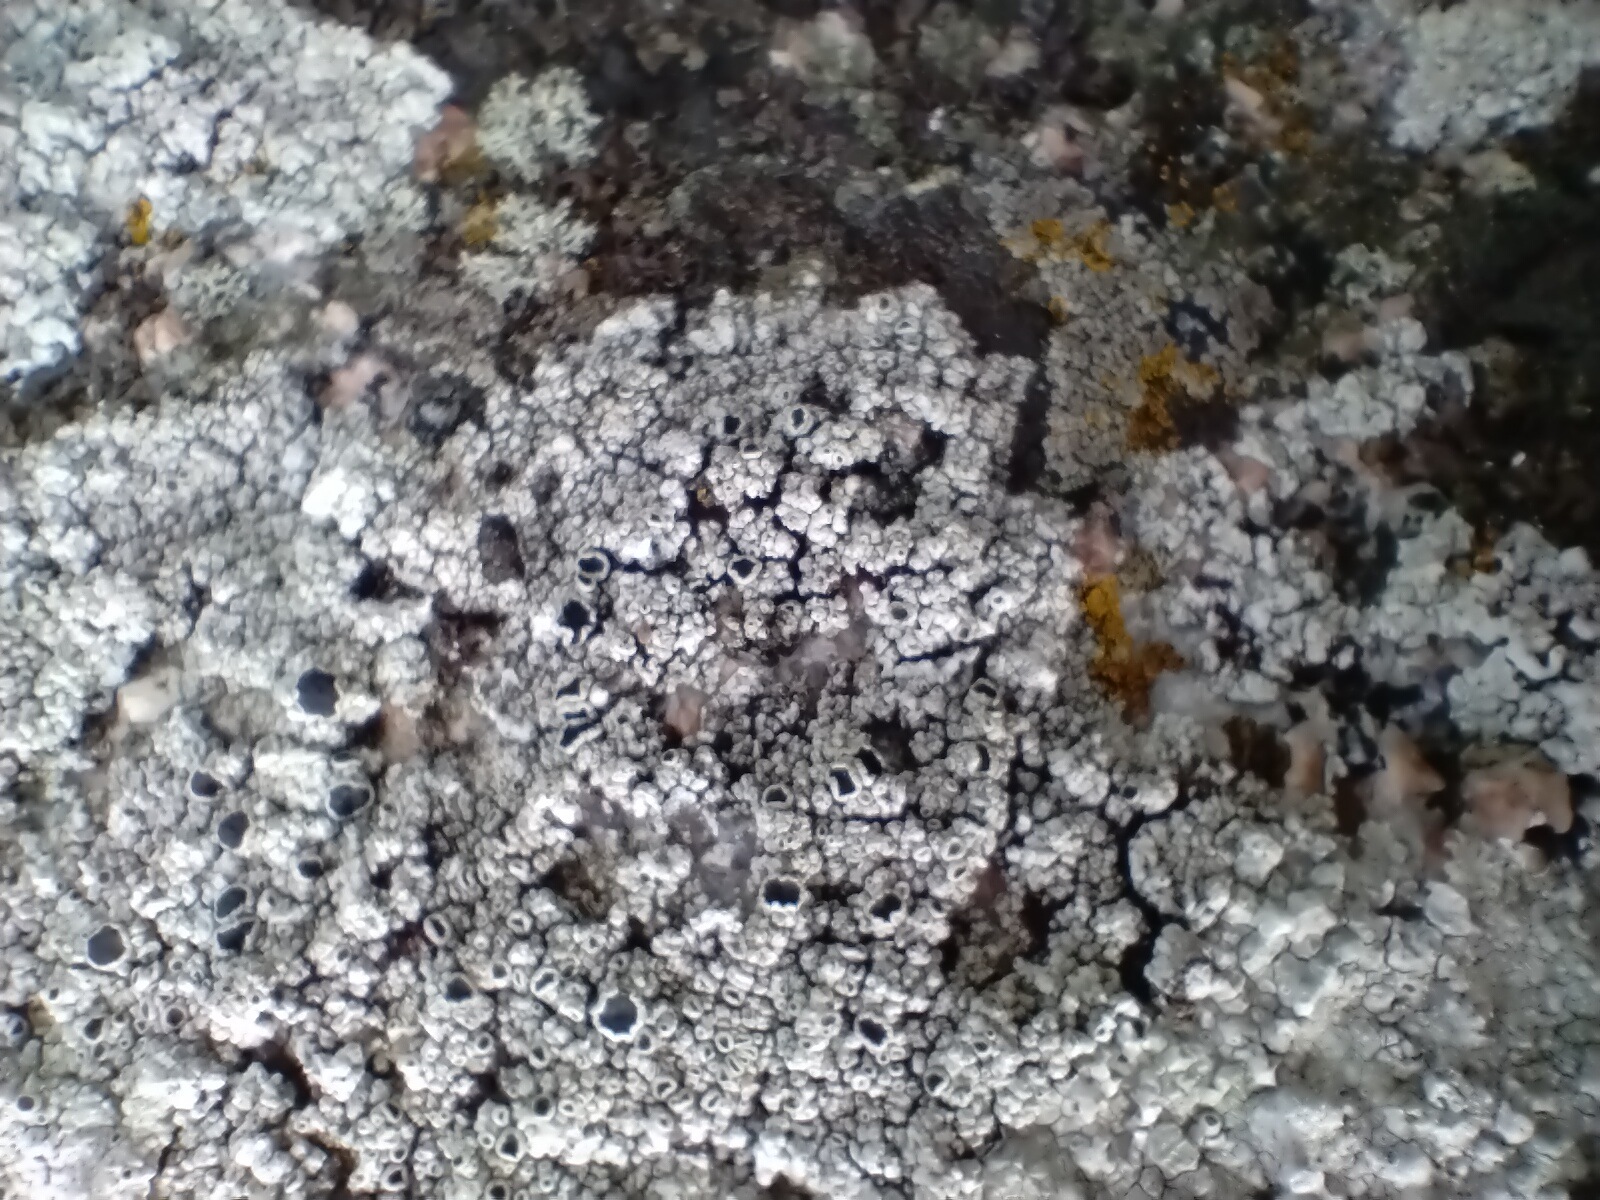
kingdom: Fungi
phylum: Ascomycota
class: Lecanoromycetes
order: Lecanorales
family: Tephromelataceae
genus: Tephromela
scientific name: Tephromela atra
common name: sortfrugtet kantskivelav
